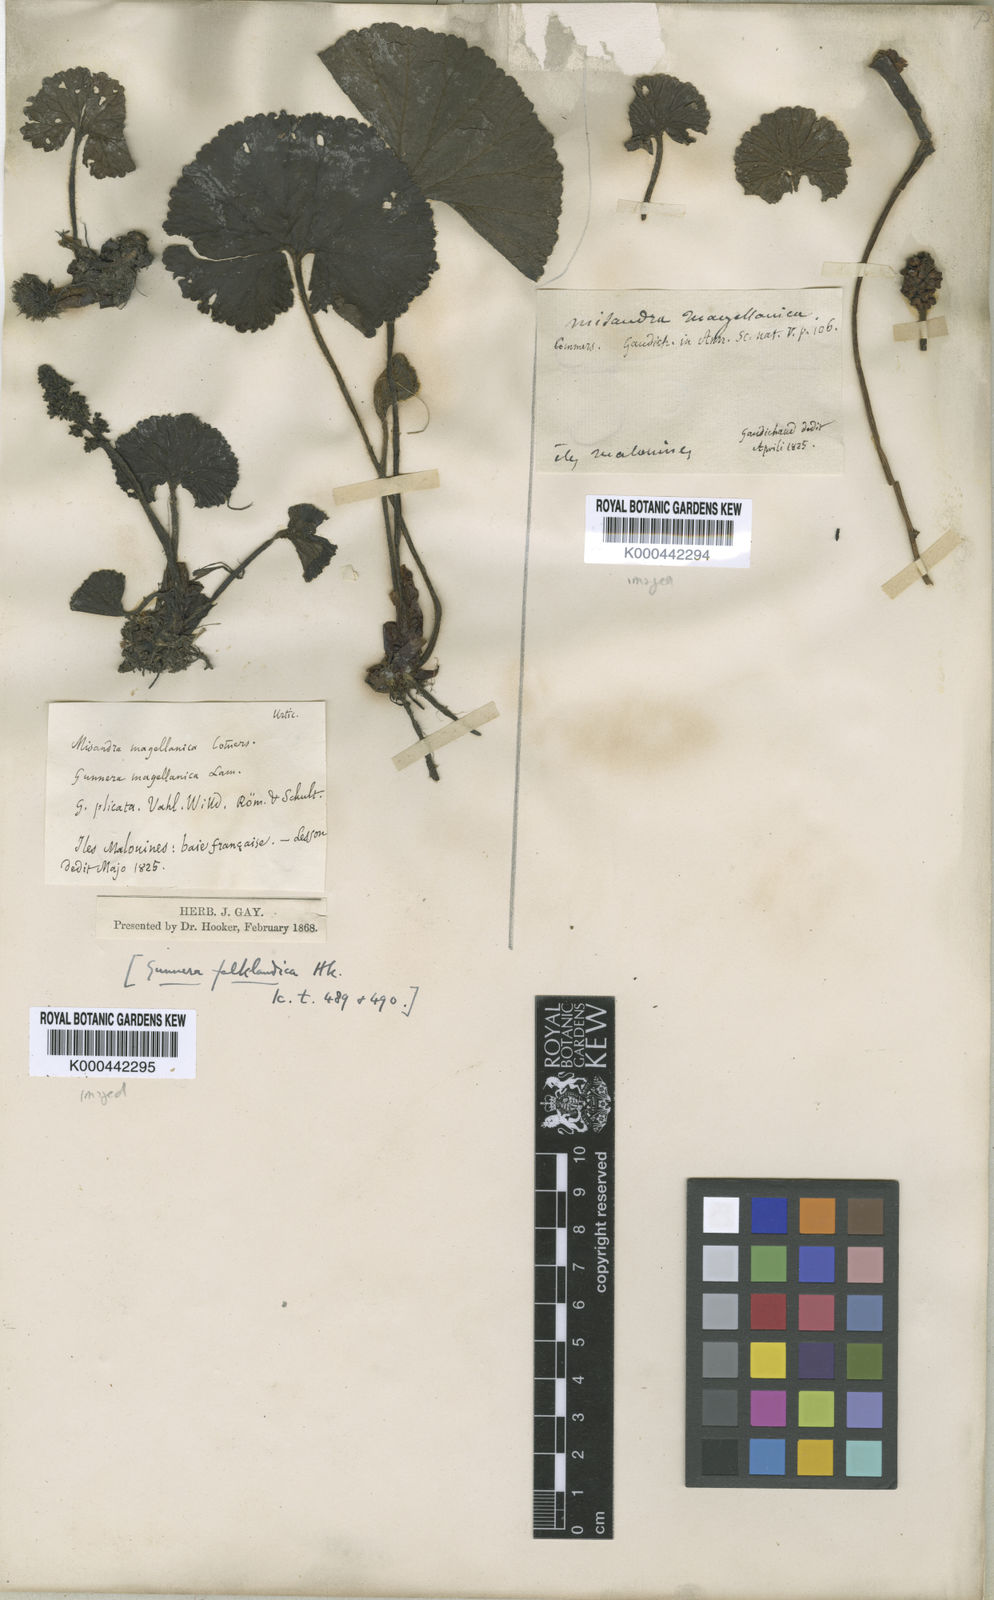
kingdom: Plantae
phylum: Tracheophyta
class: Magnoliopsida
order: Gunnerales
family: Gunneraceae
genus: Gunnera
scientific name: Gunnera magellanica
